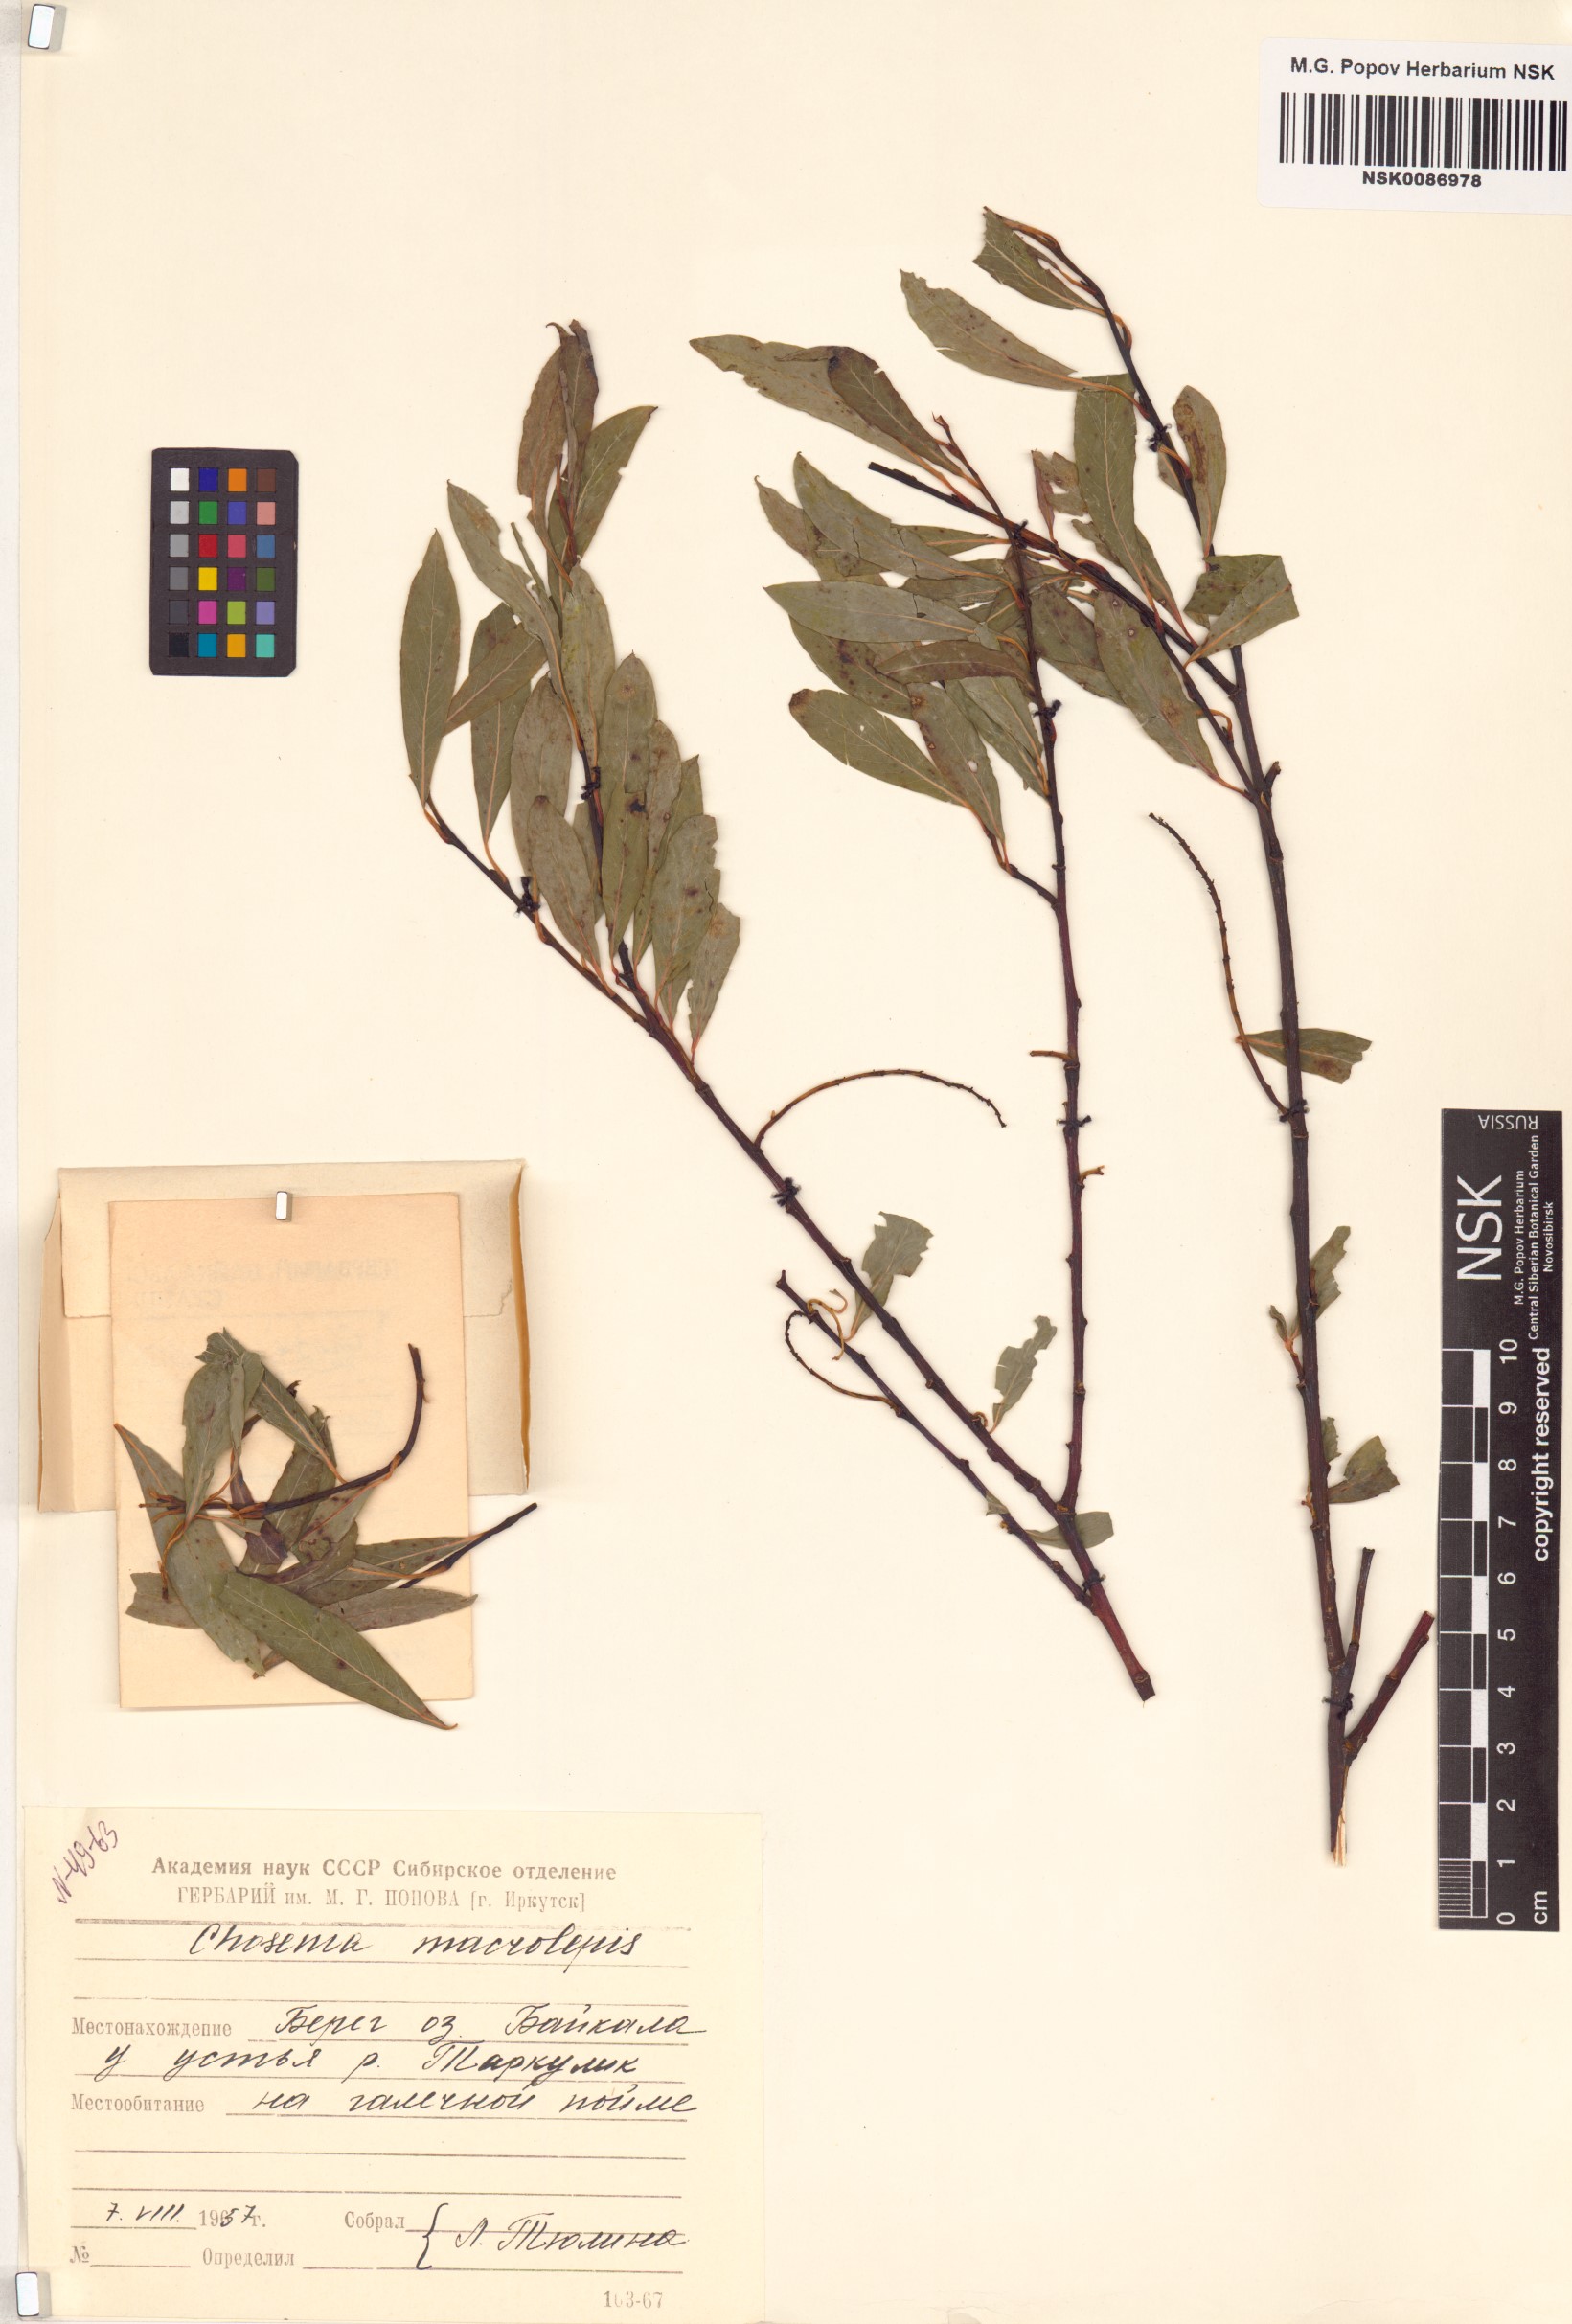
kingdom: Plantae
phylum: Tracheophyta
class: Magnoliopsida
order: Malpighiales
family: Salicaceae
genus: Chosenia
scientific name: Chosenia arbutifolia
